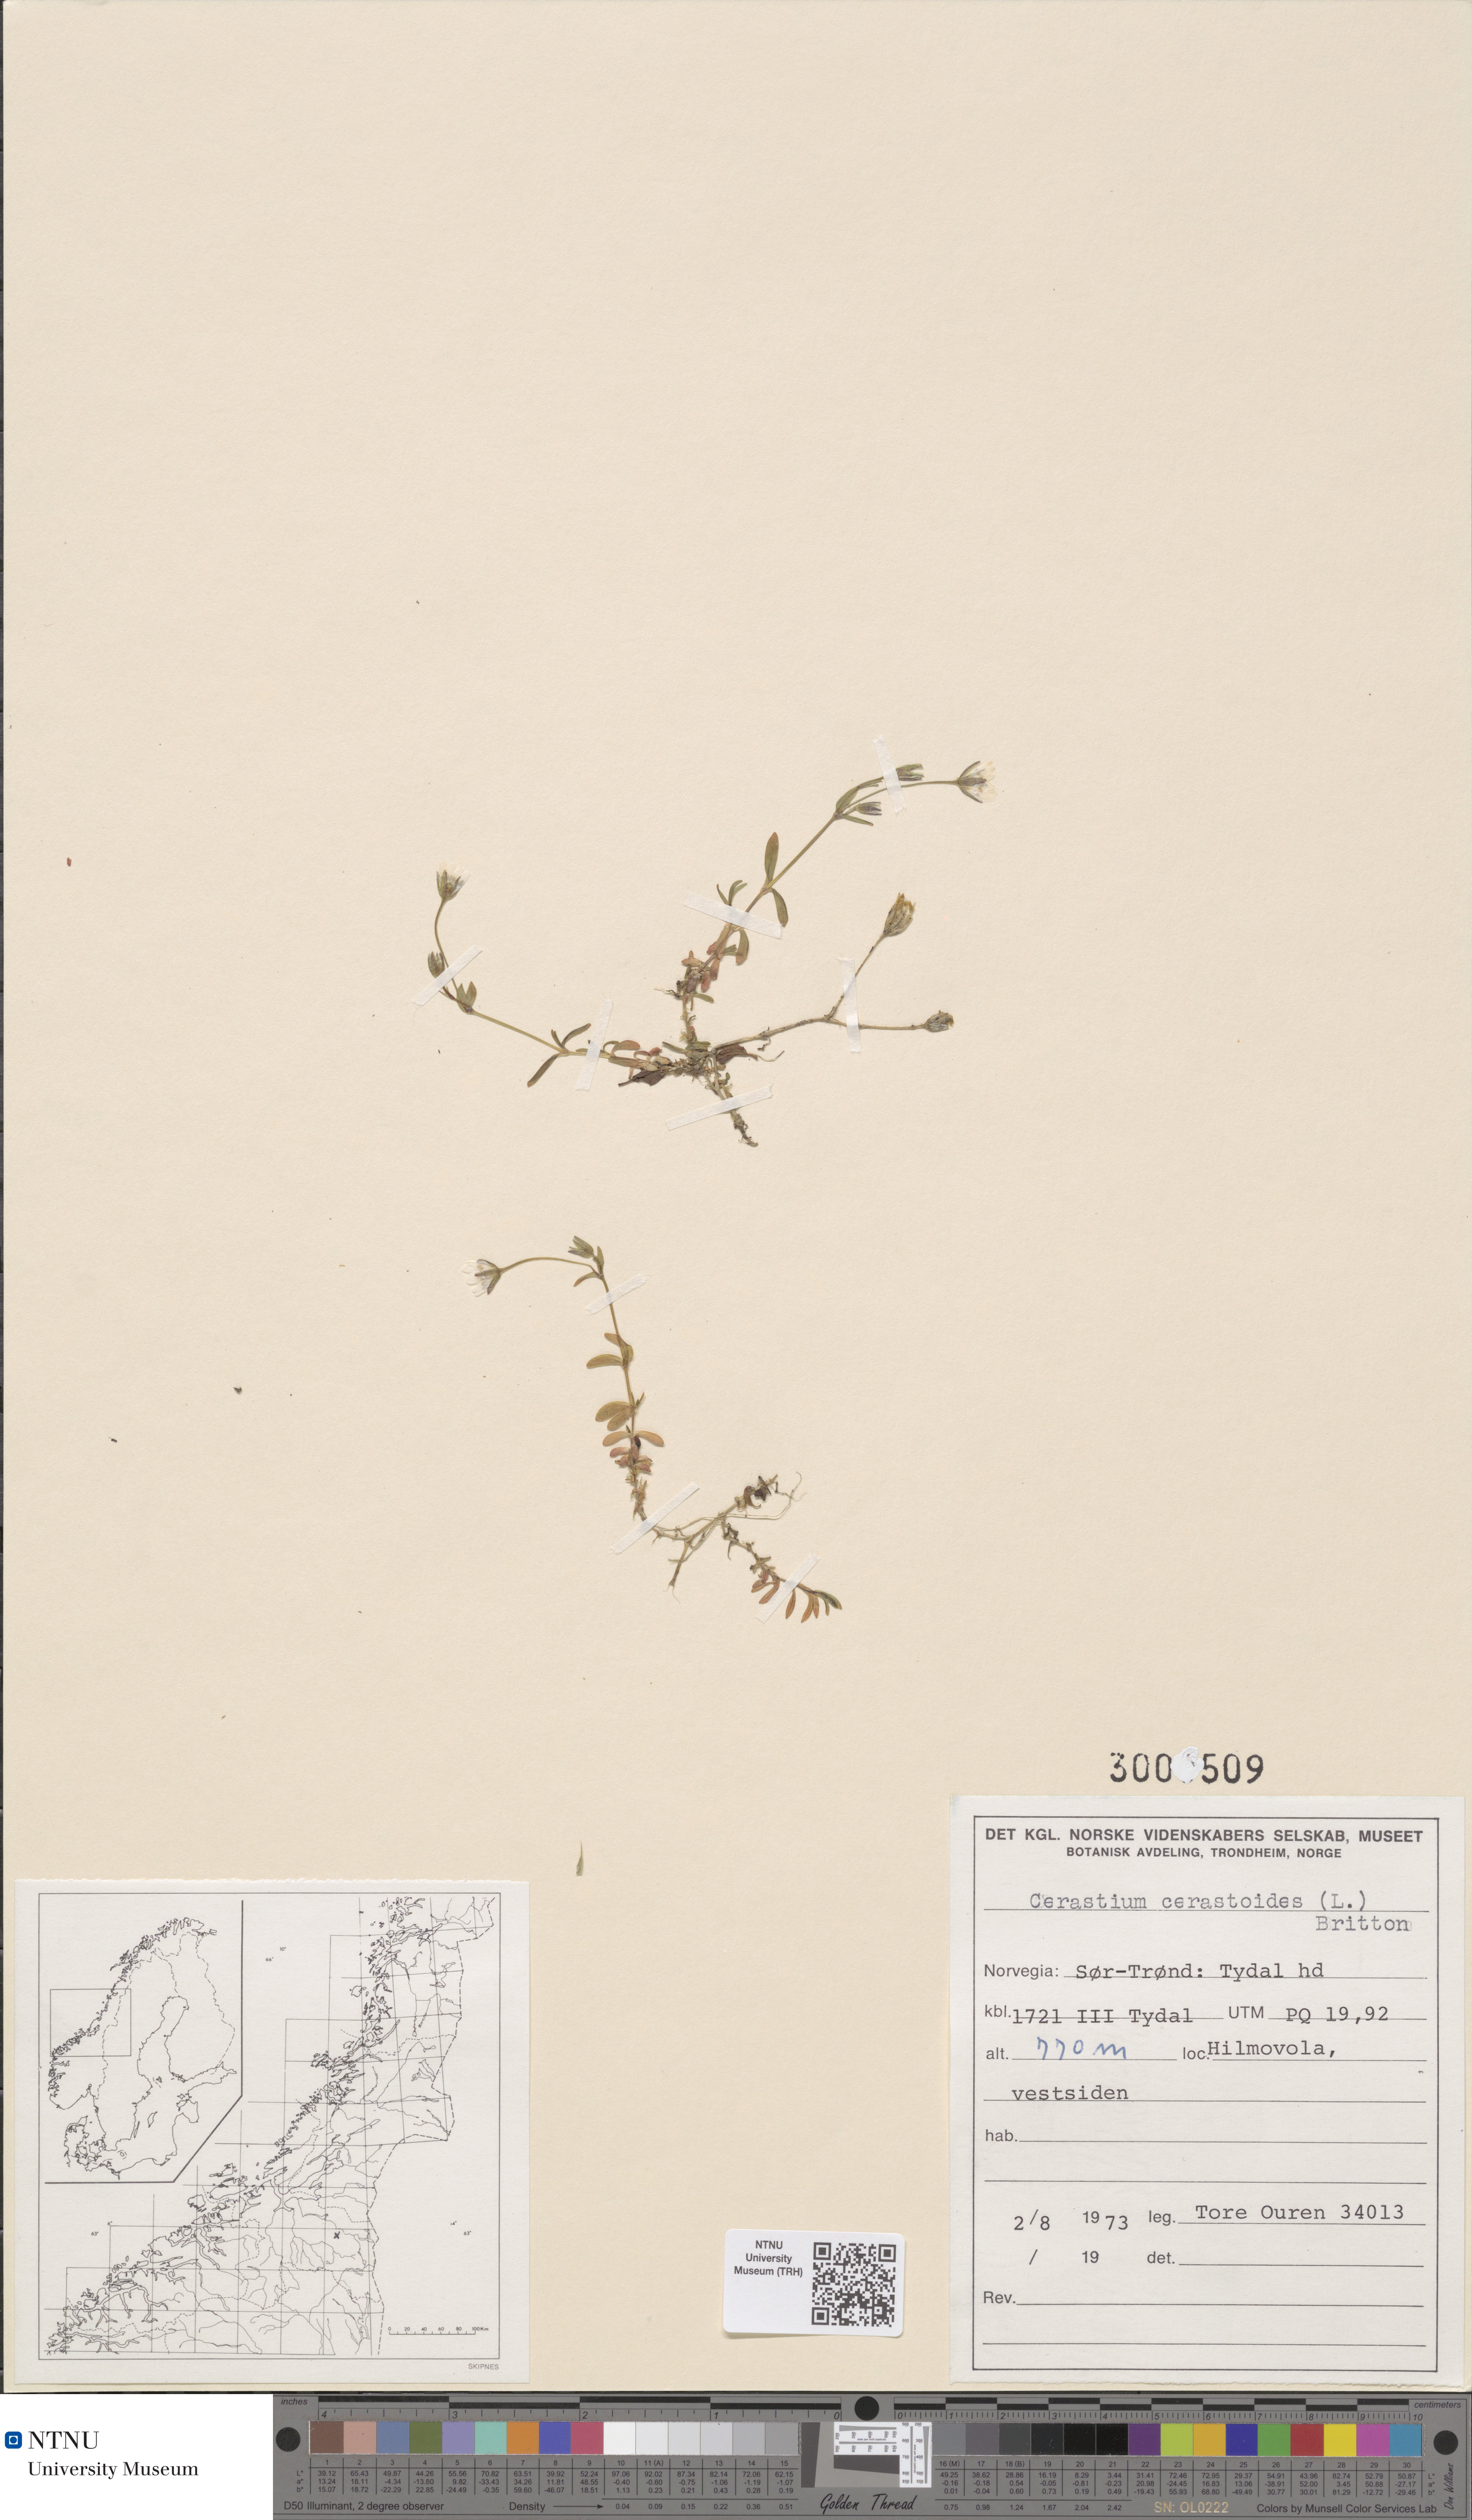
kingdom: Plantae
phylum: Tracheophyta
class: Magnoliopsida
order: Caryophyllales
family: Caryophyllaceae
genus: Dichodon
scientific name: Dichodon cerastoides
